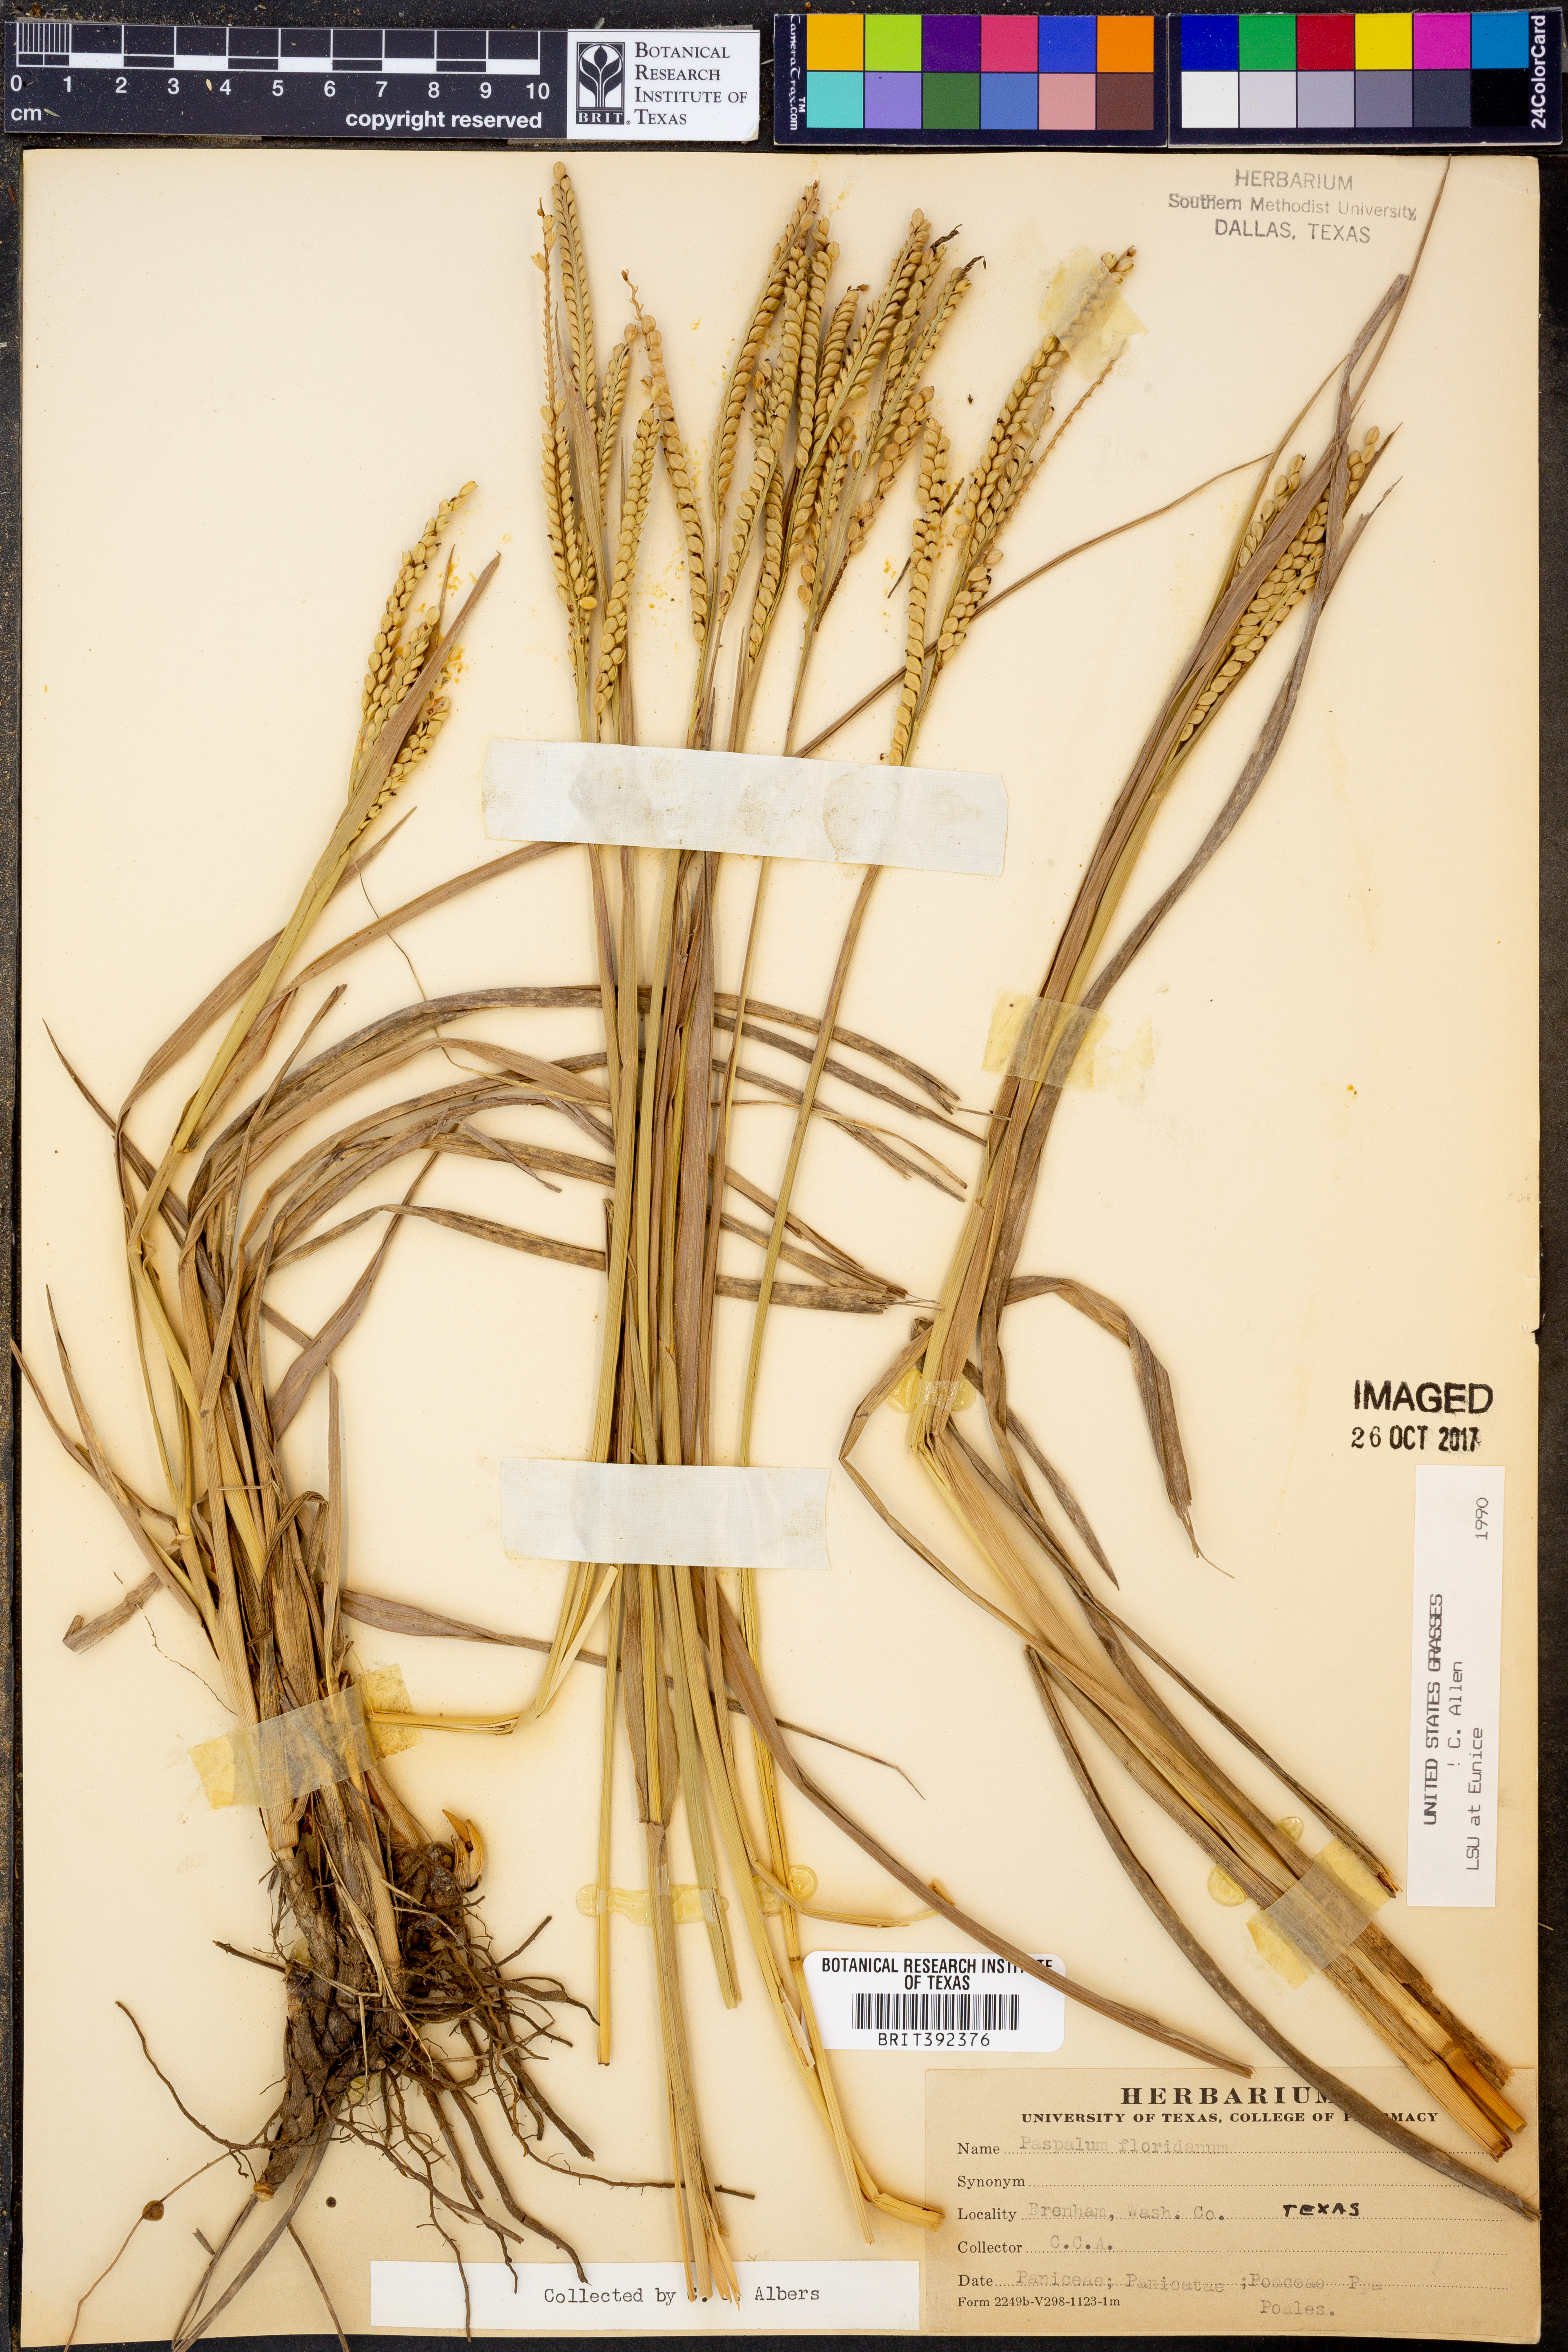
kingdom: Plantae
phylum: Tracheophyta
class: Liliopsida
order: Poales
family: Poaceae
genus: Paspalum
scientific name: Paspalum floridanum
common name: Florida paspalum
